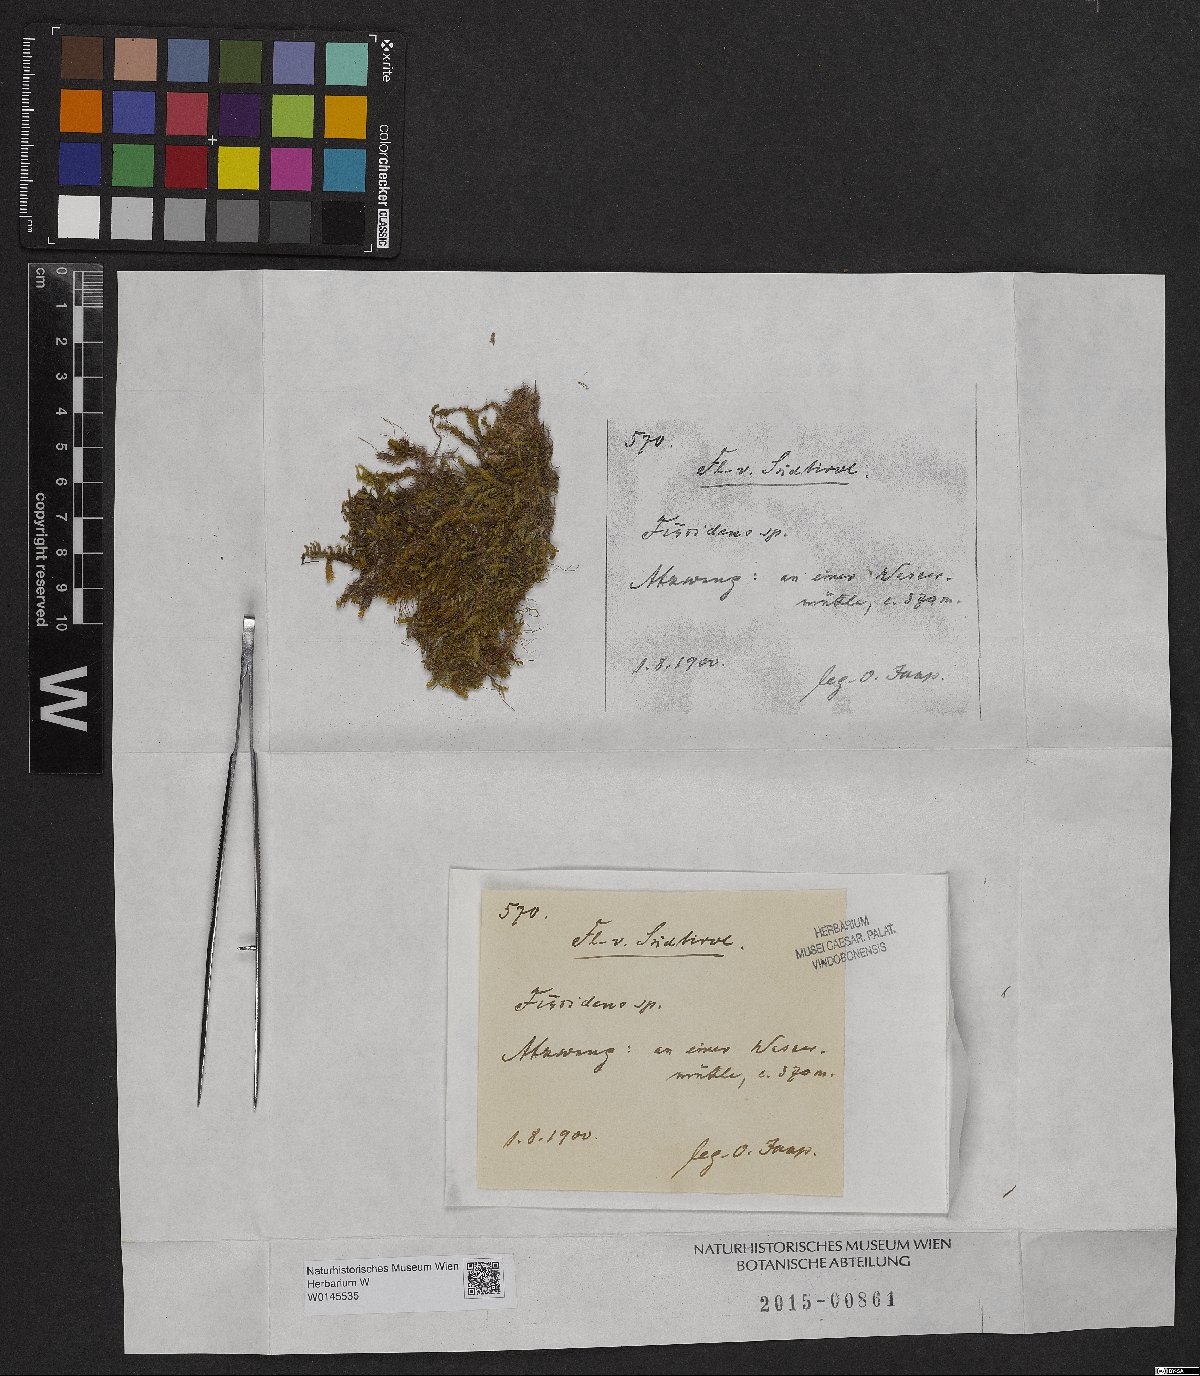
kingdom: Plantae
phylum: Bryophyta
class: Bryopsida
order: Dicranales
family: Fissidentaceae
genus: Fissidens
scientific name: Fissidens
